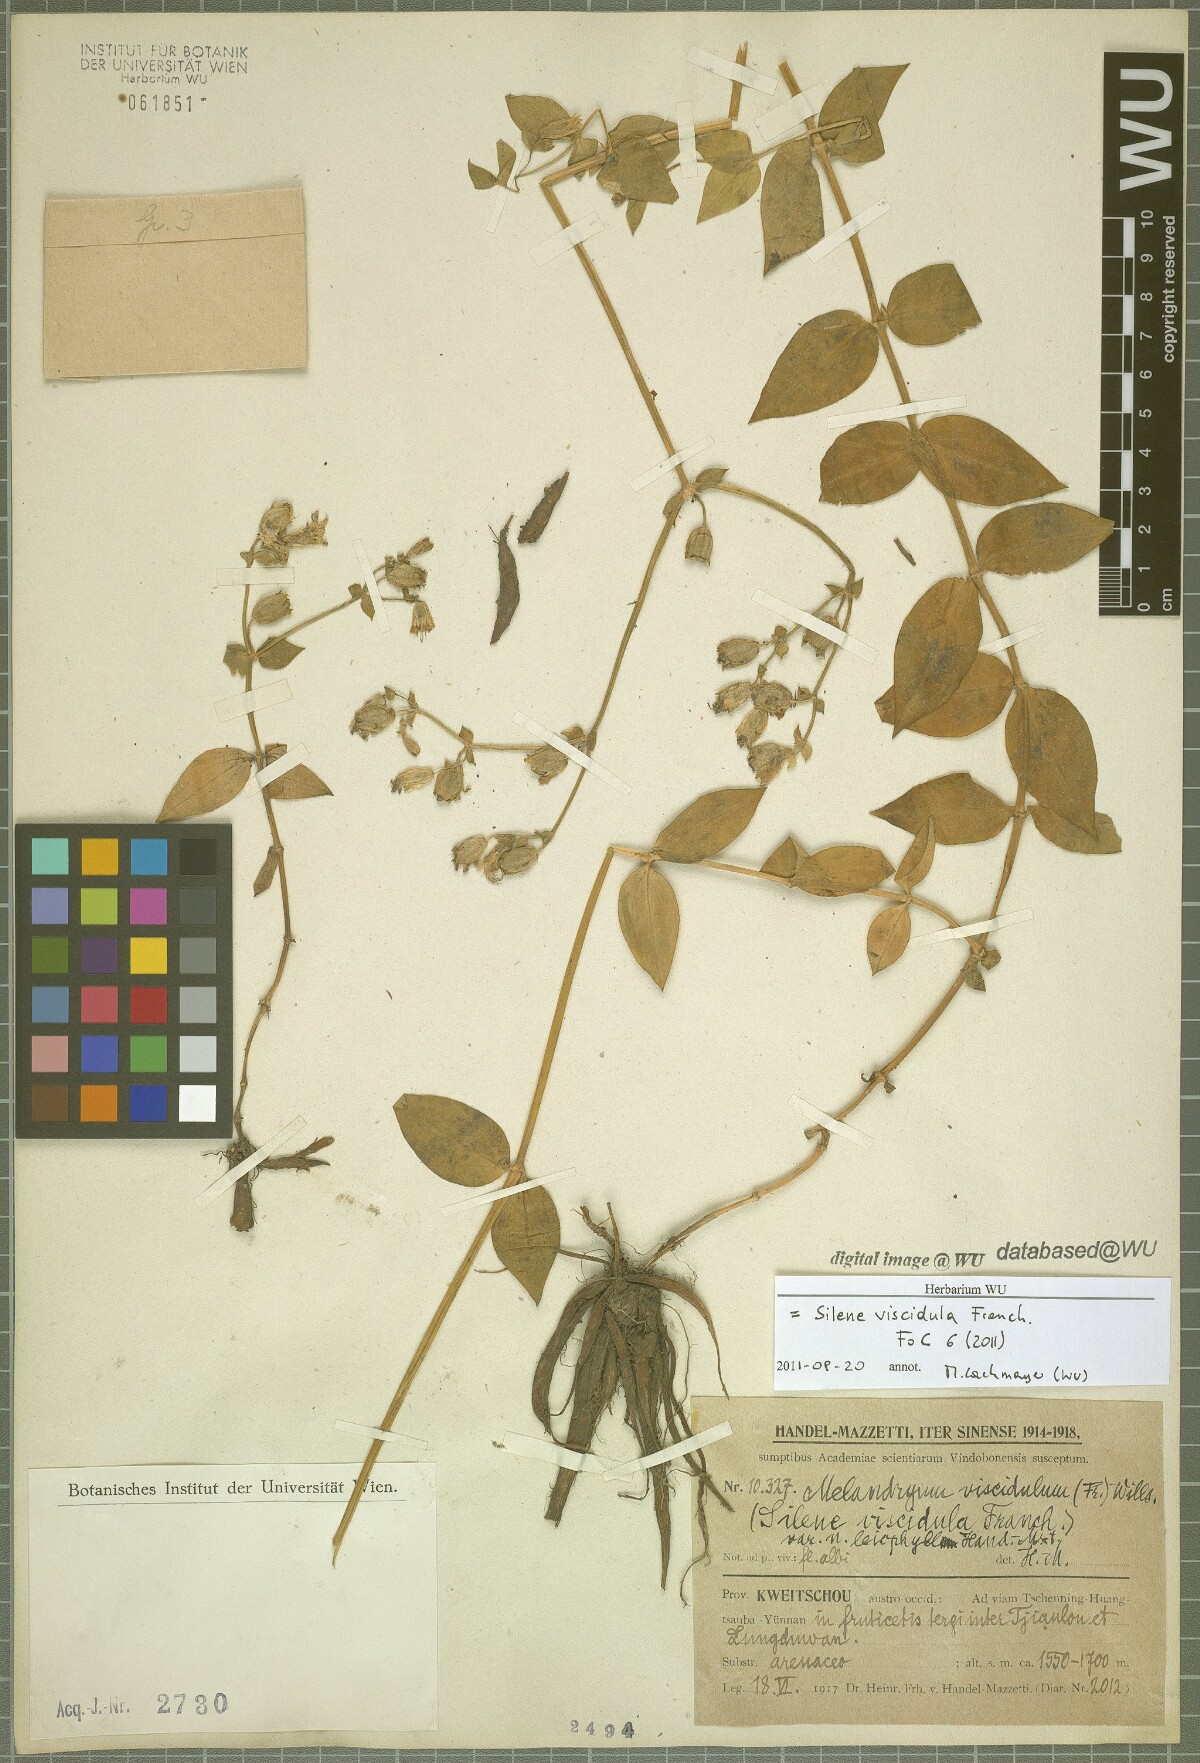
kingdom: Plantae
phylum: Tracheophyta
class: Magnoliopsida
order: Caryophyllales
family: Caryophyllaceae
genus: Silene
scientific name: Silene viscidula
